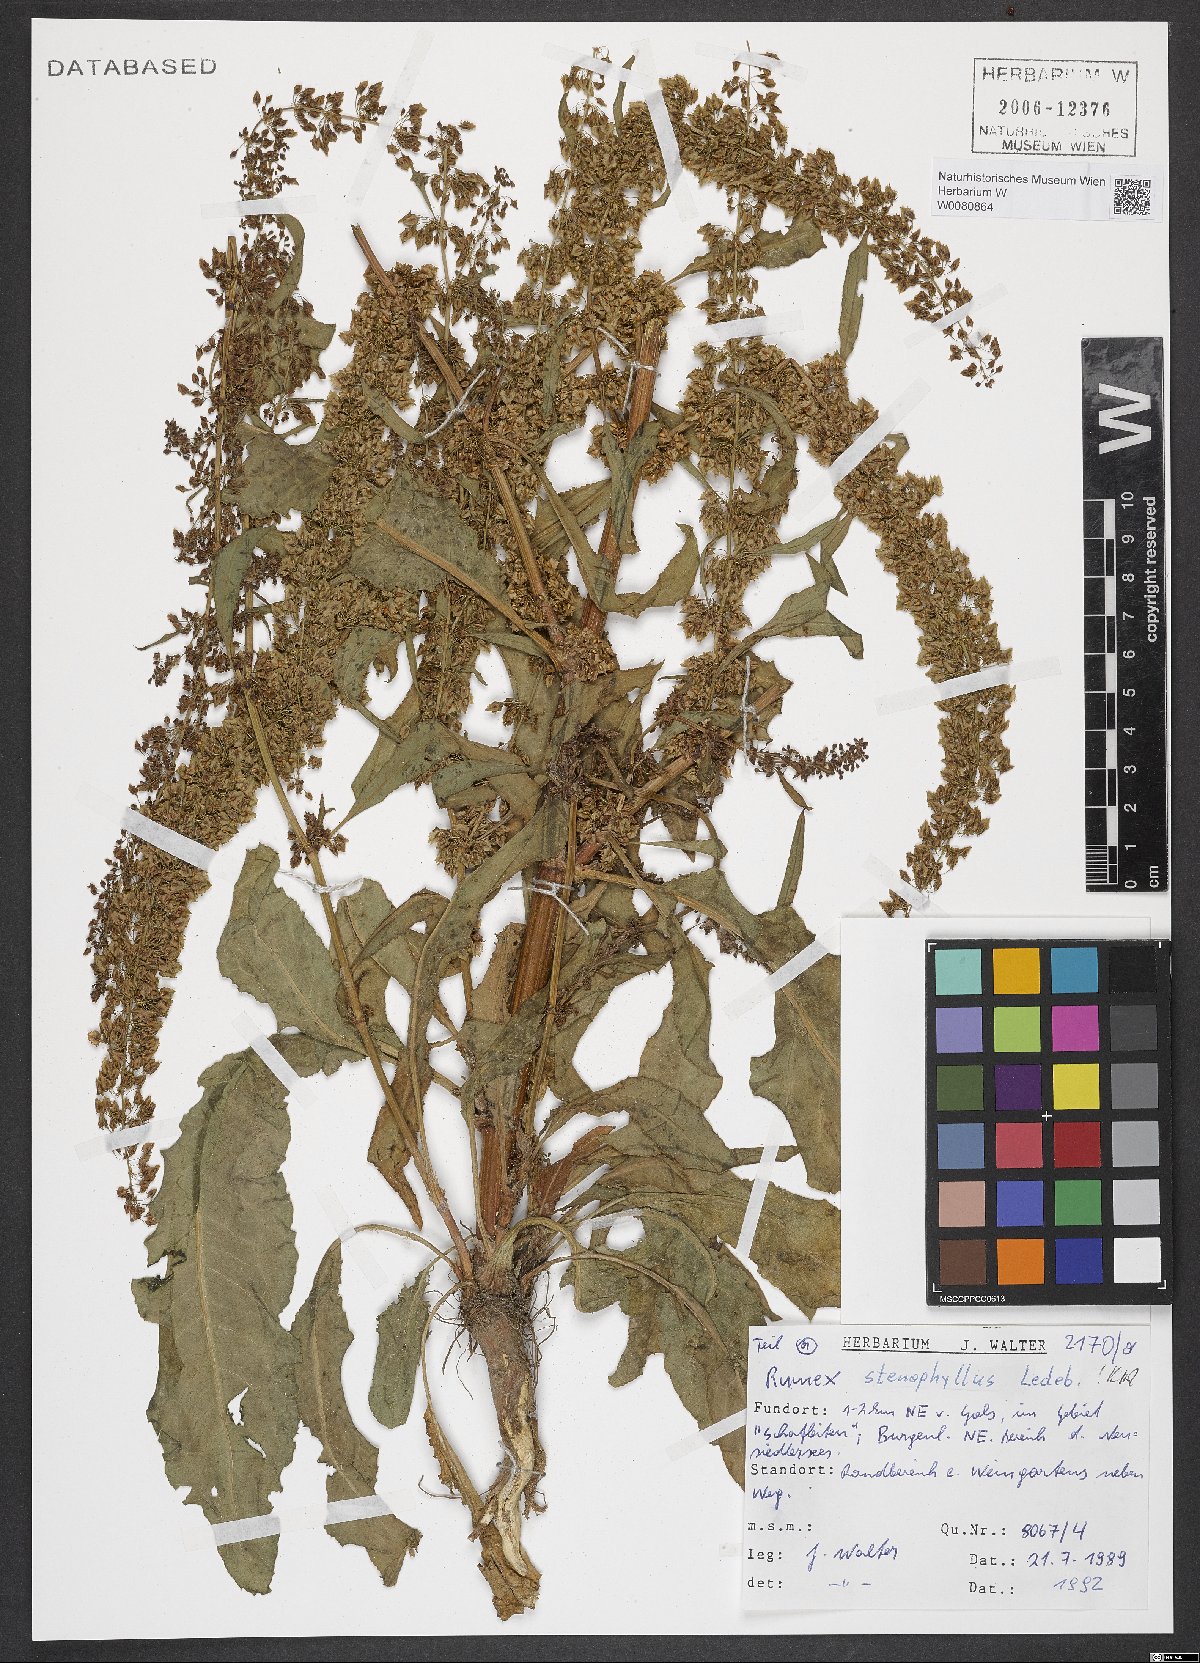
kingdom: Plantae
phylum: Tracheophyta
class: Magnoliopsida
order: Caryophyllales
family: Polygonaceae
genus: Rumex
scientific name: Rumex stenophyllus
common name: Narrowleaf dock
